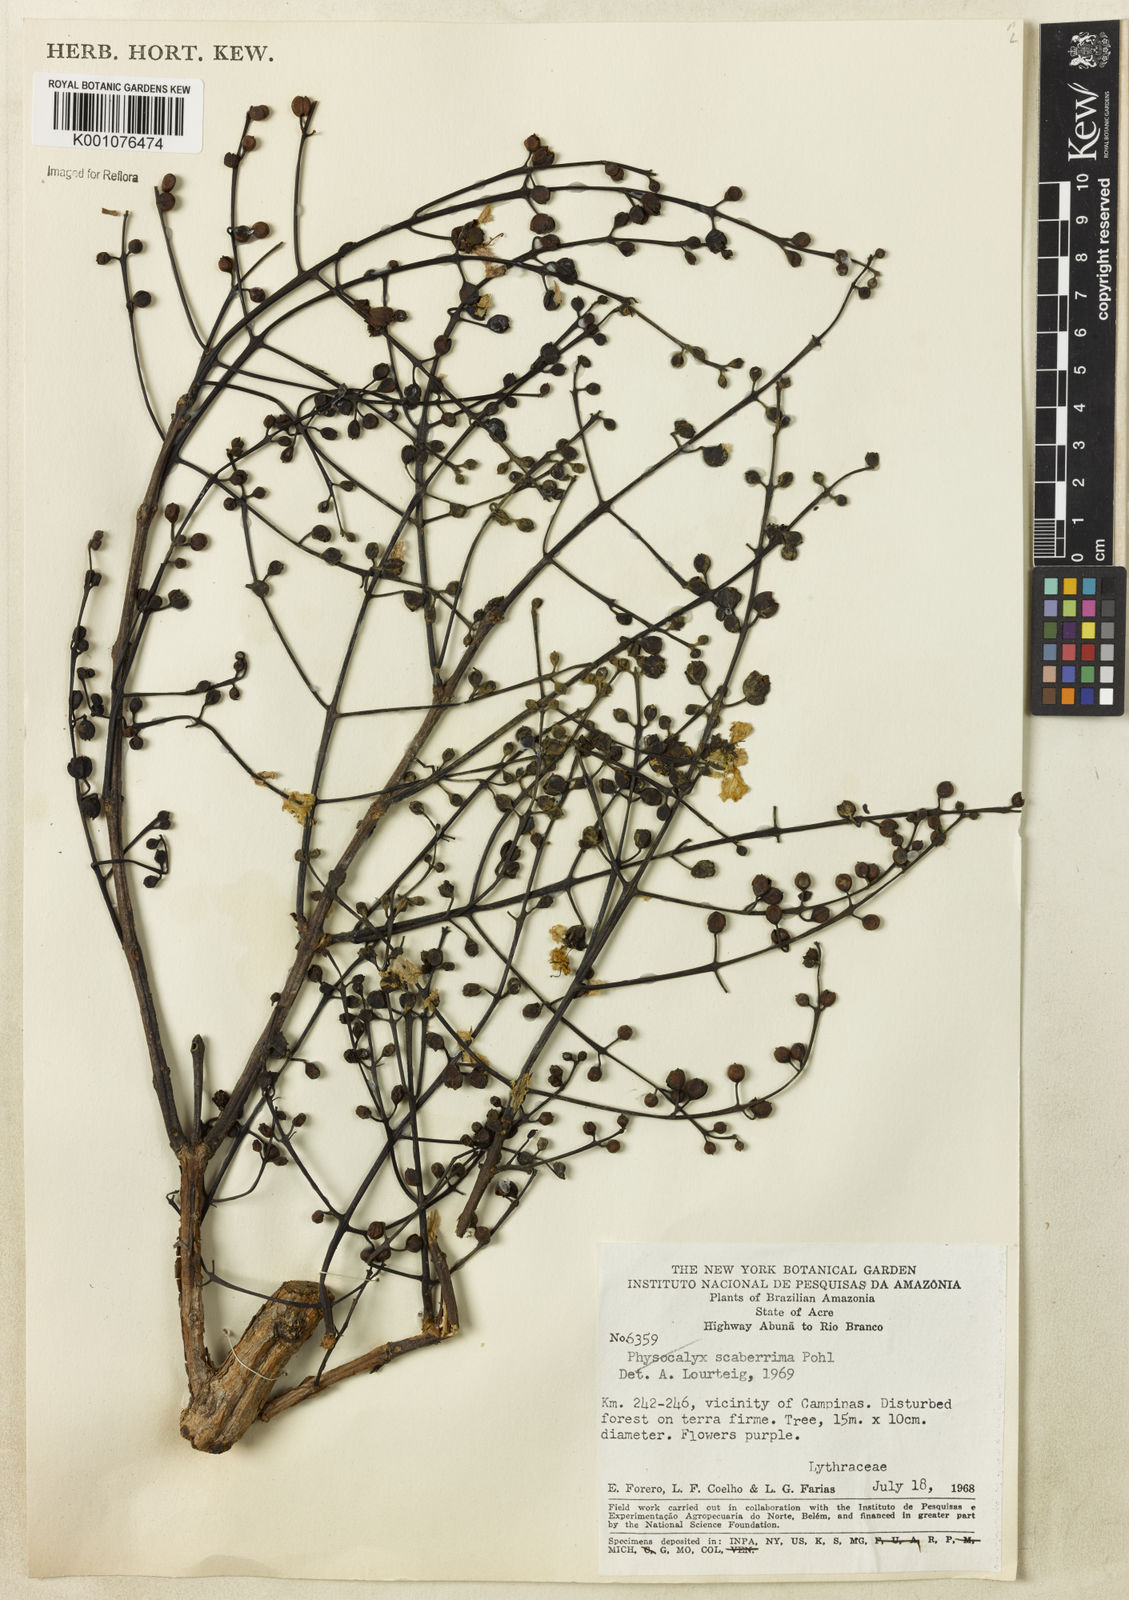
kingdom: Plantae
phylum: Tracheophyta
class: Magnoliopsida
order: Myrtales
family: Lythraceae
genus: Physocalymma
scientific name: Physocalymma scaberrimum
